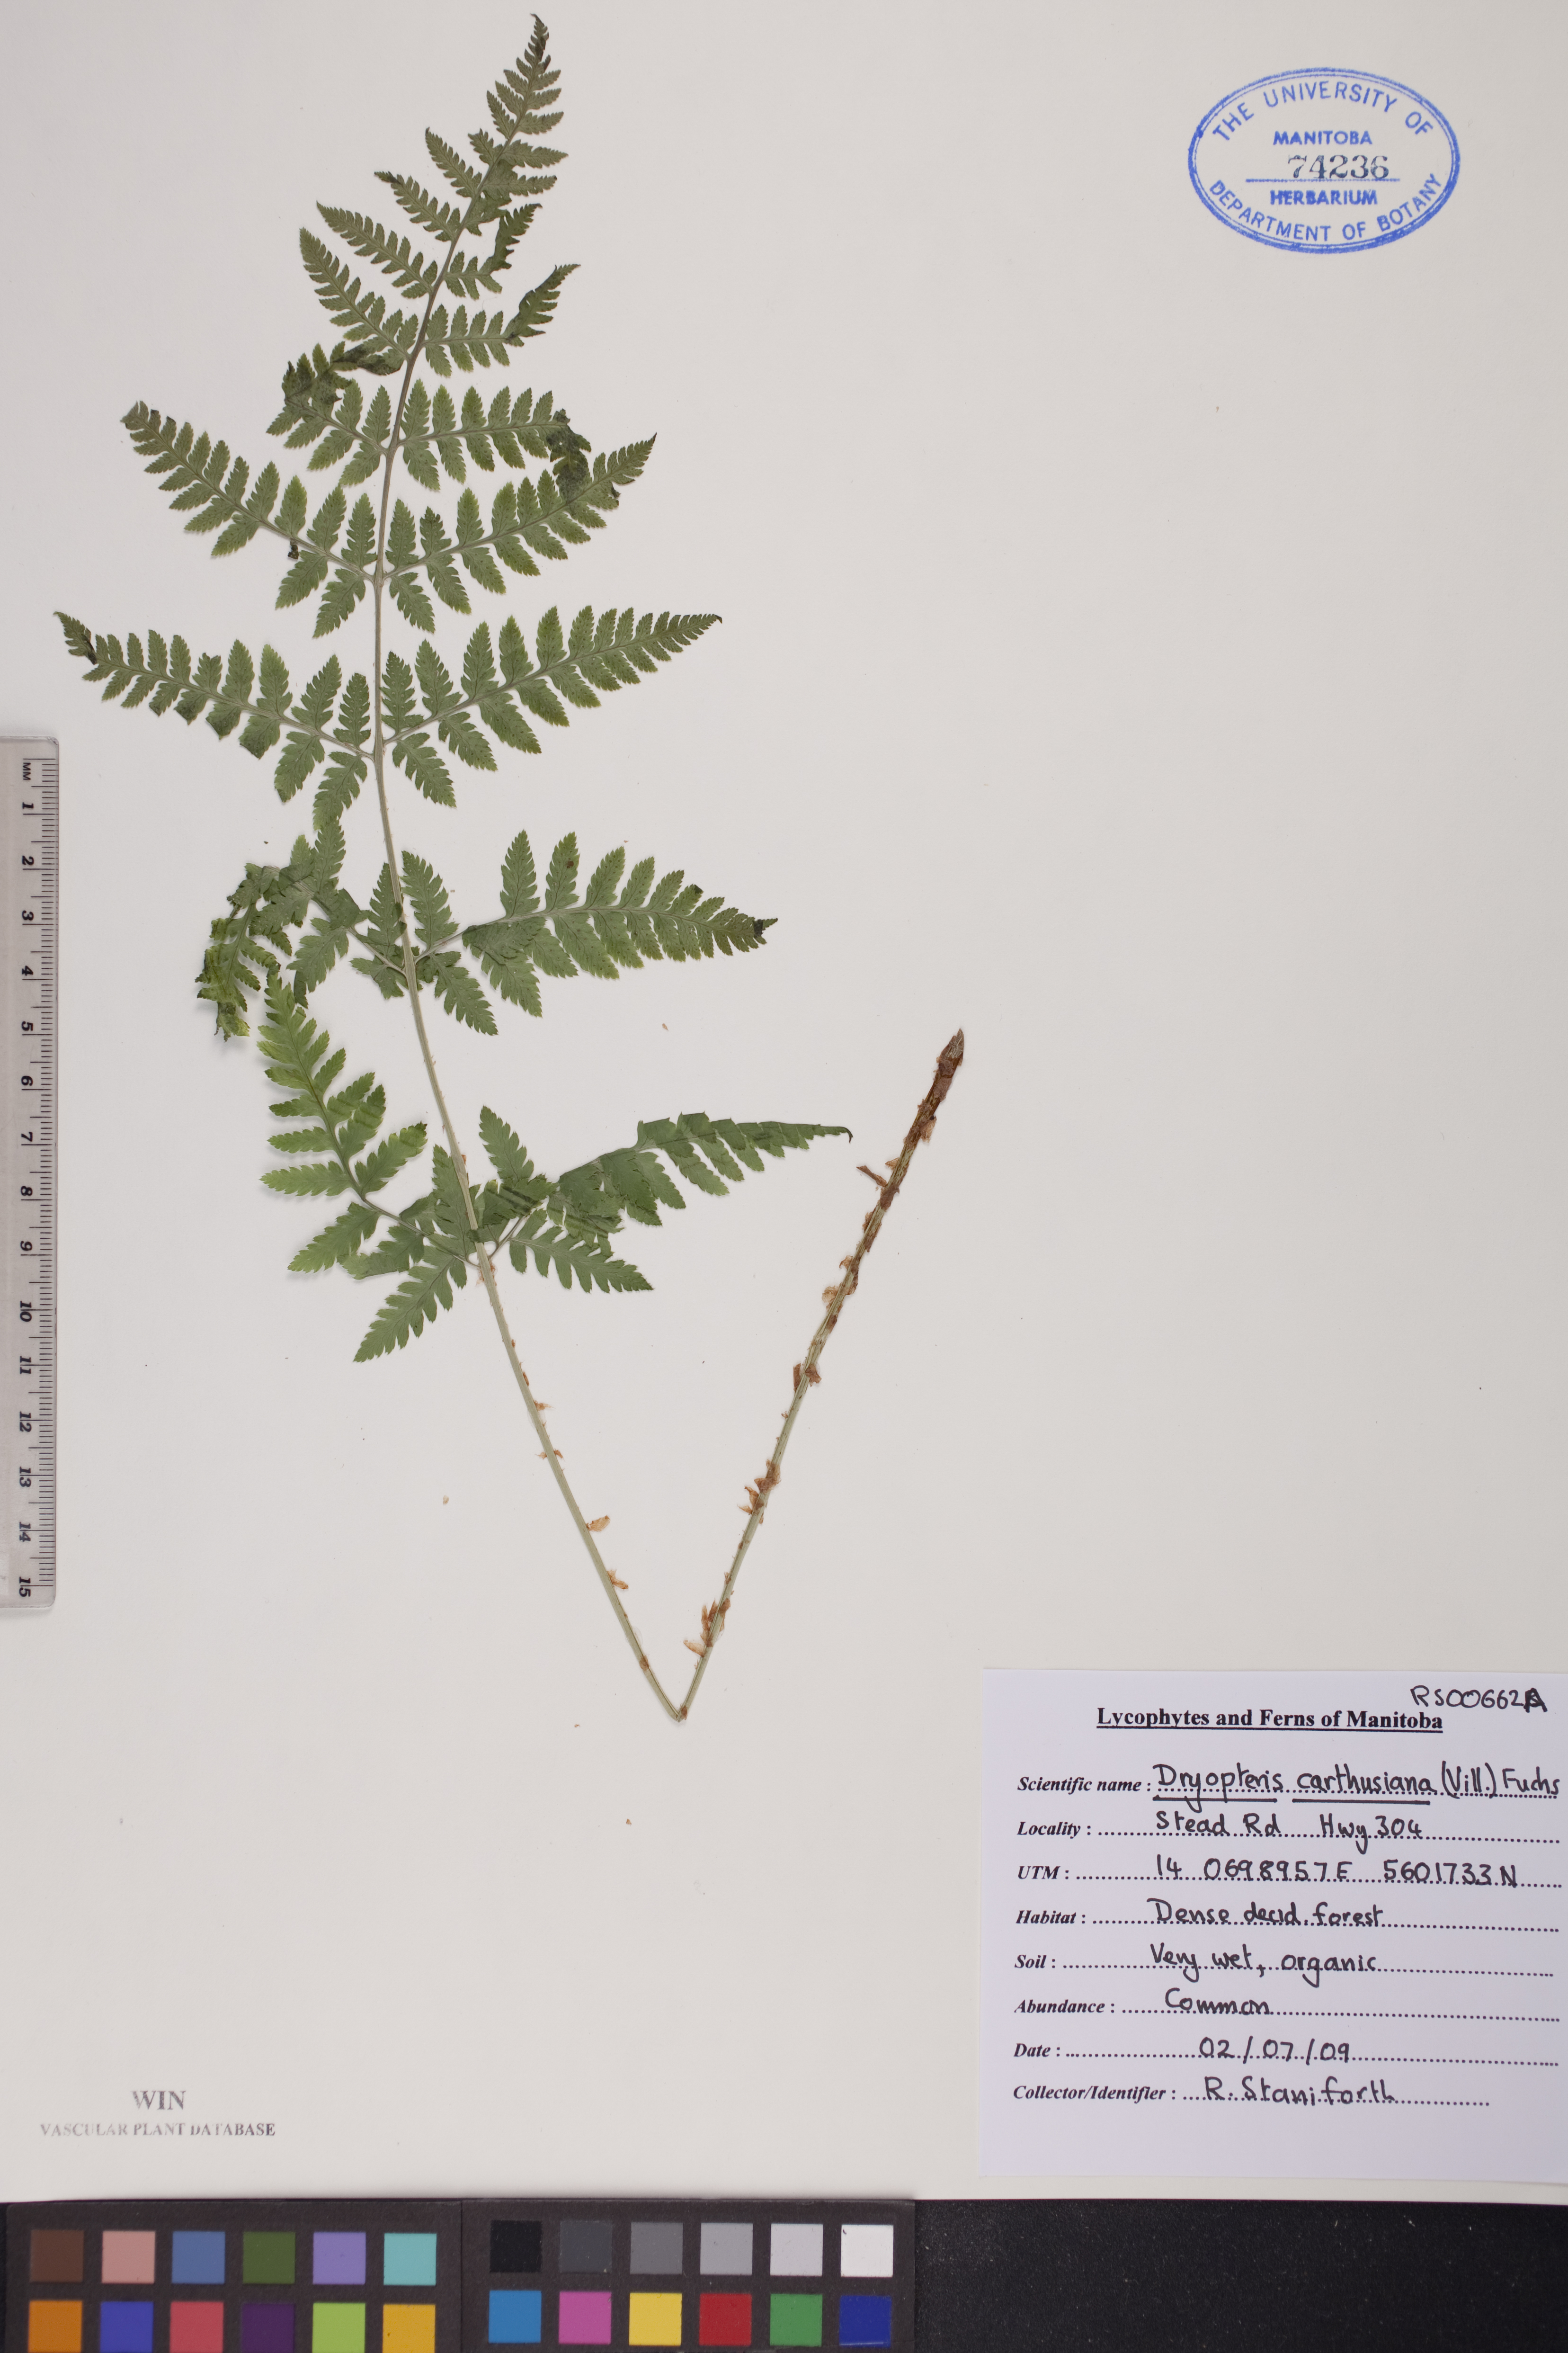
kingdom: Plantae
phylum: Tracheophyta
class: Polypodiopsida
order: Polypodiales
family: Dryopteridaceae
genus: Dryopteris
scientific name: Dryopteris carthusiana
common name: Narrow buckler-fern
